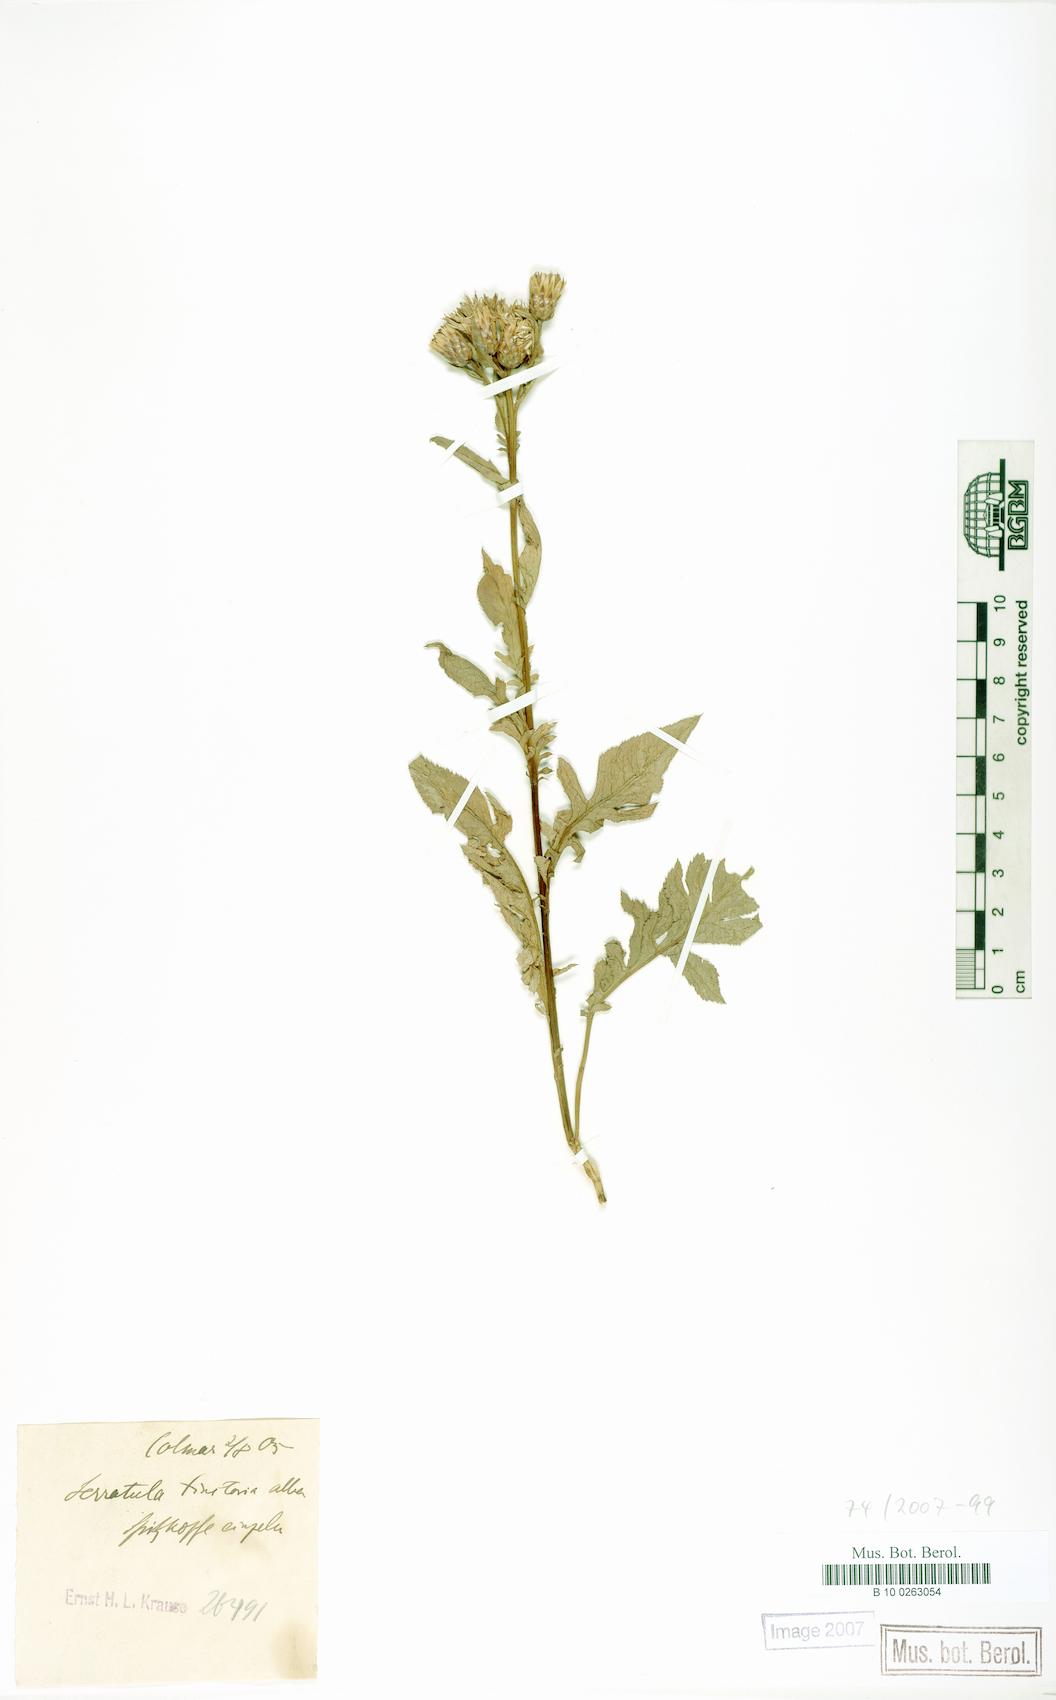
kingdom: Plantae
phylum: Tracheophyta
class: Magnoliopsida
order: Asterales
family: Asteraceae
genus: Serratula
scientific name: Serratula tinctoria
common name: Saw-wort
